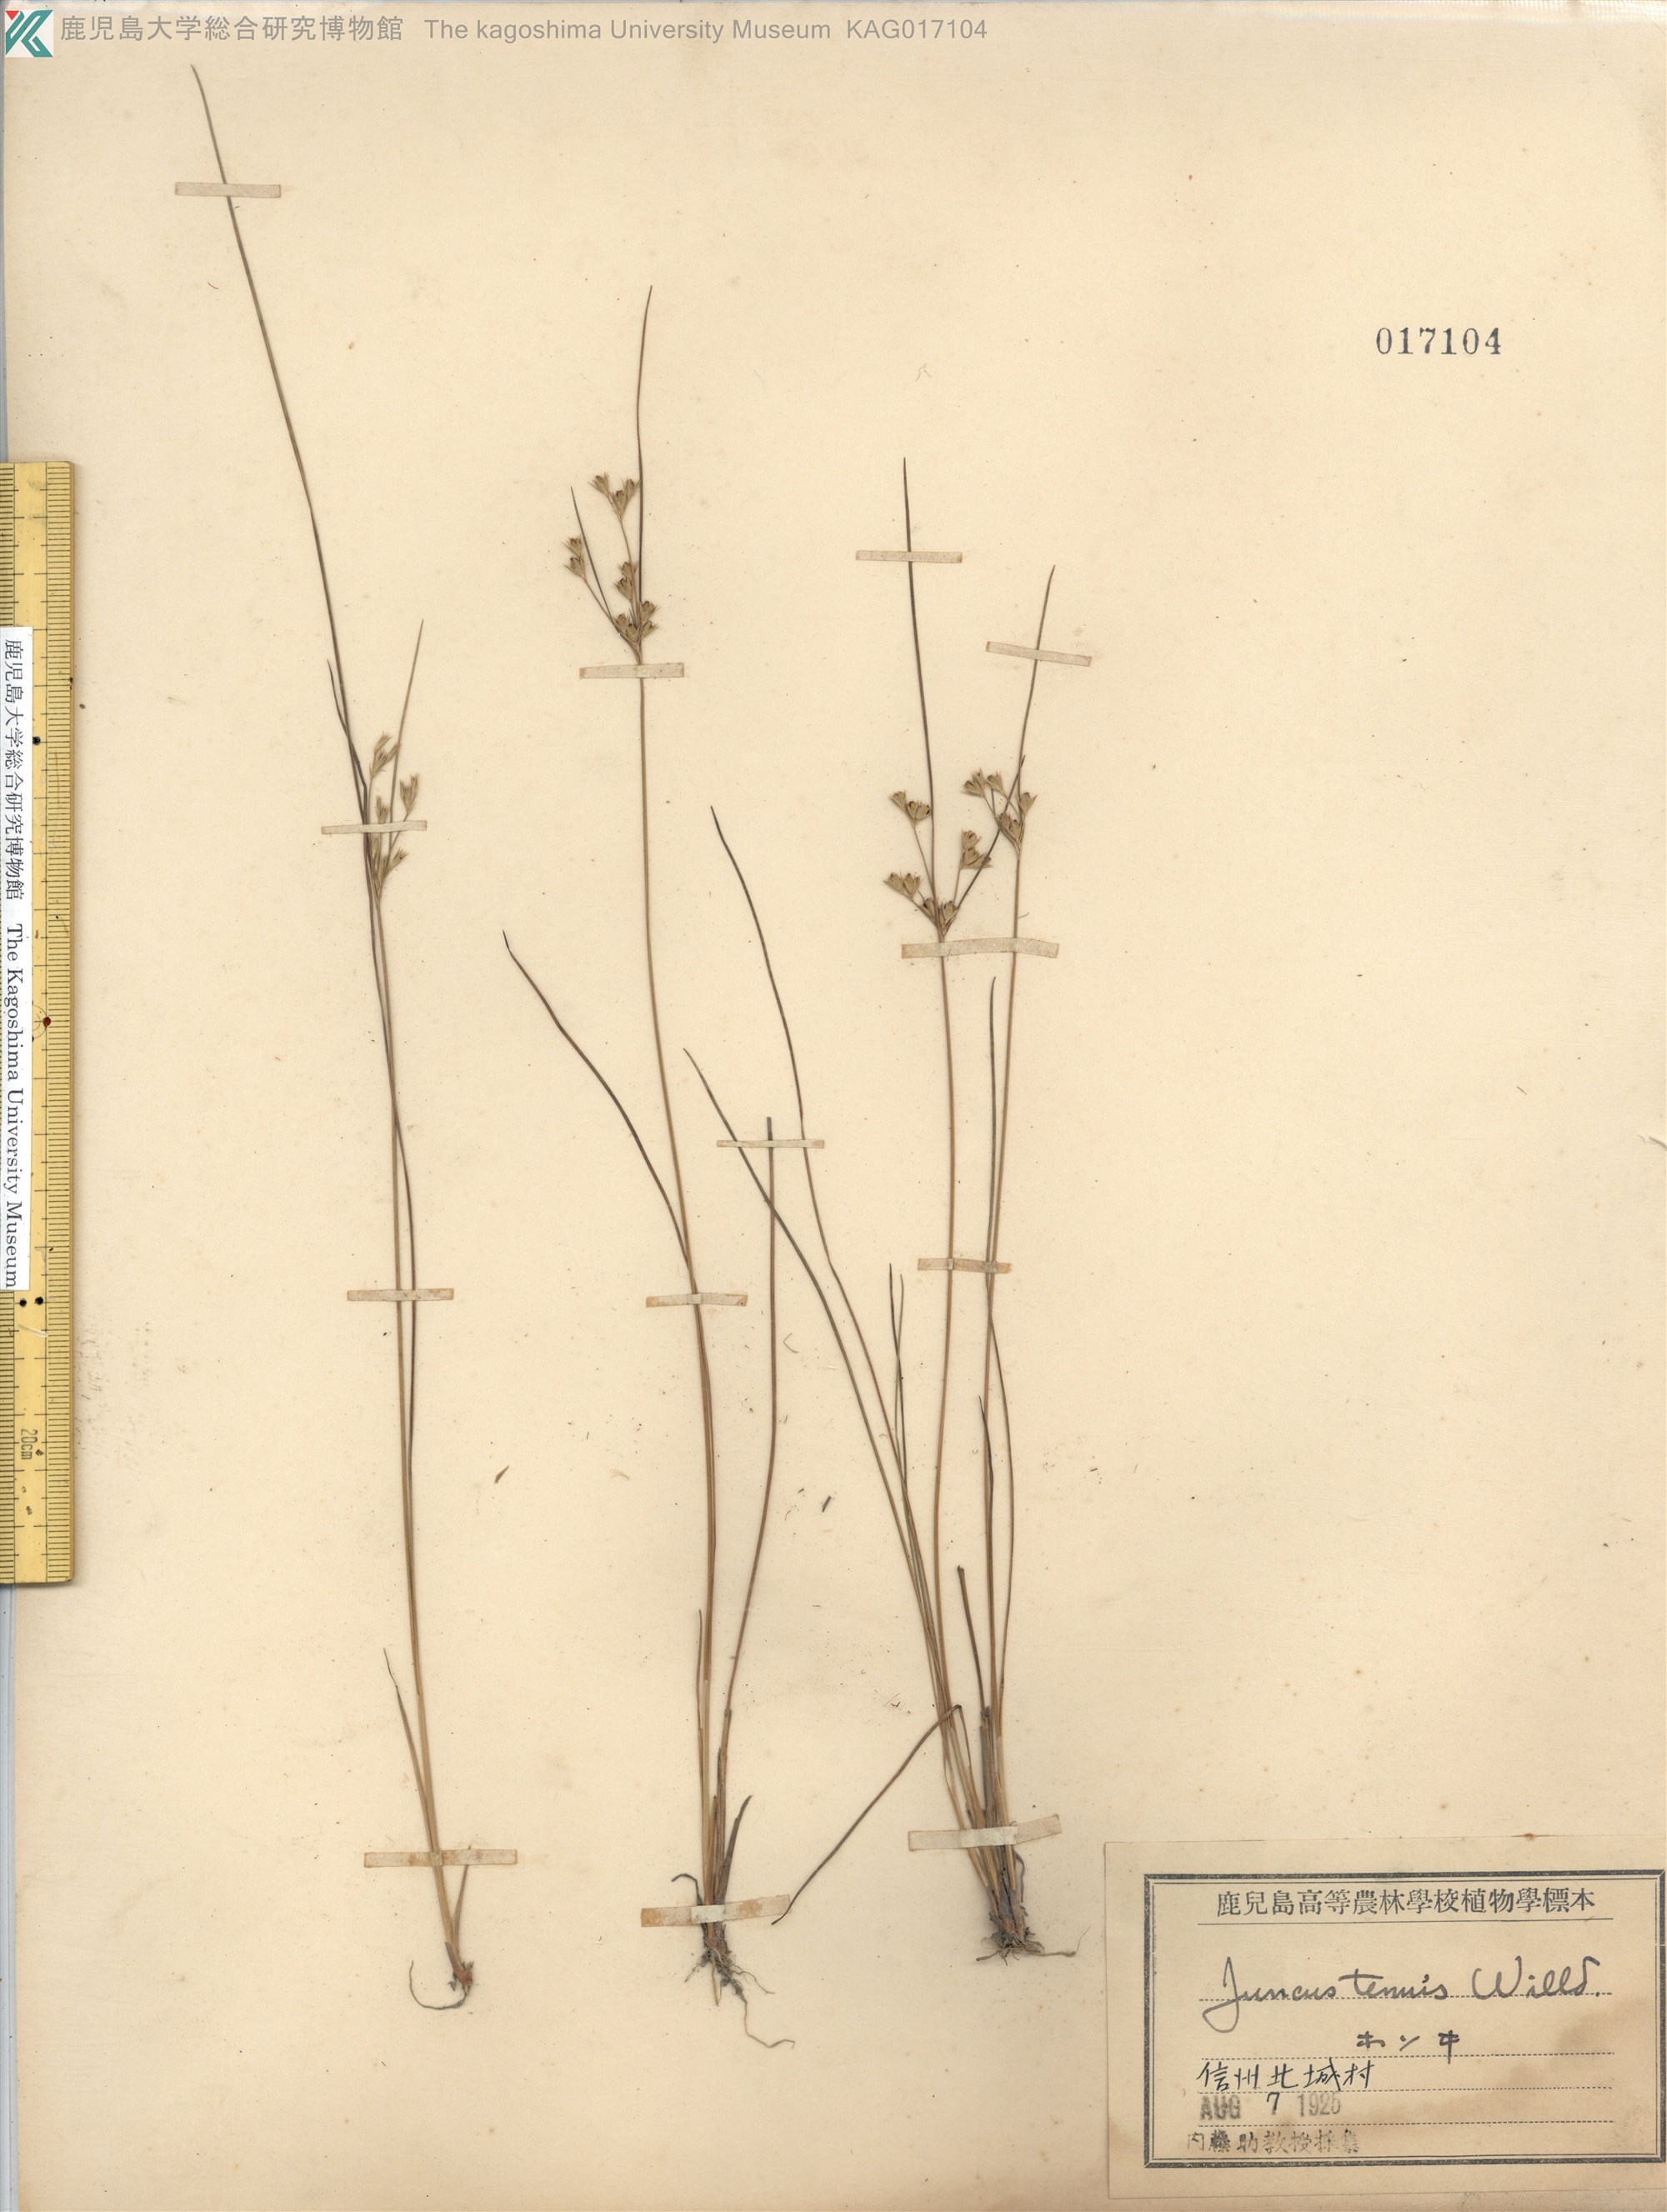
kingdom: Plantae
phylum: Tracheophyta
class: Liliopsida
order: Poales
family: Juncaceae
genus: Juncus
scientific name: Juncus tenuis
